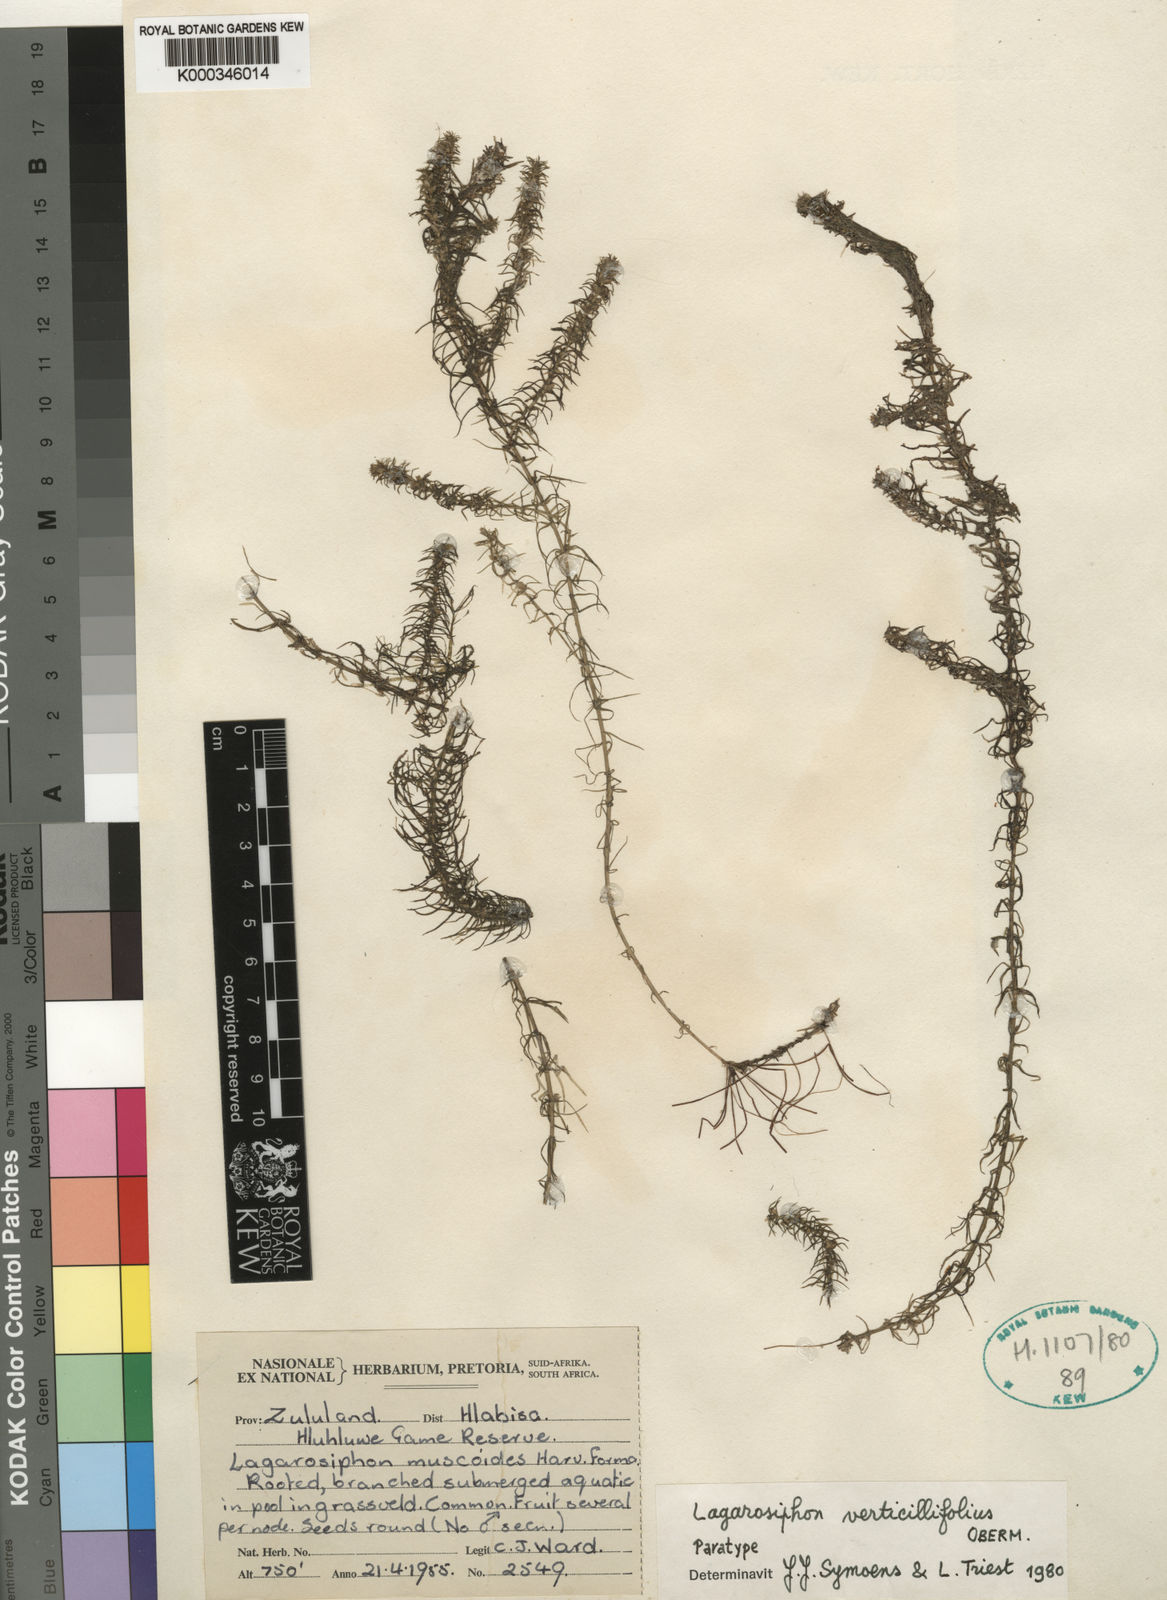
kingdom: Plantae
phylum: Tracheophyta
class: Liliopsida
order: Alismatales
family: Hydrocharitaceae
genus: Lagarosiphon
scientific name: Lagarosiphon verticillifolius
